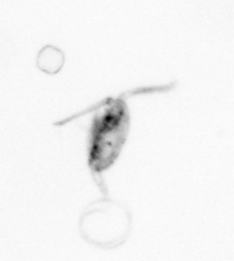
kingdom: Animalia
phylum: Arthropoda
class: Copepoda
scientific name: Copepoda
